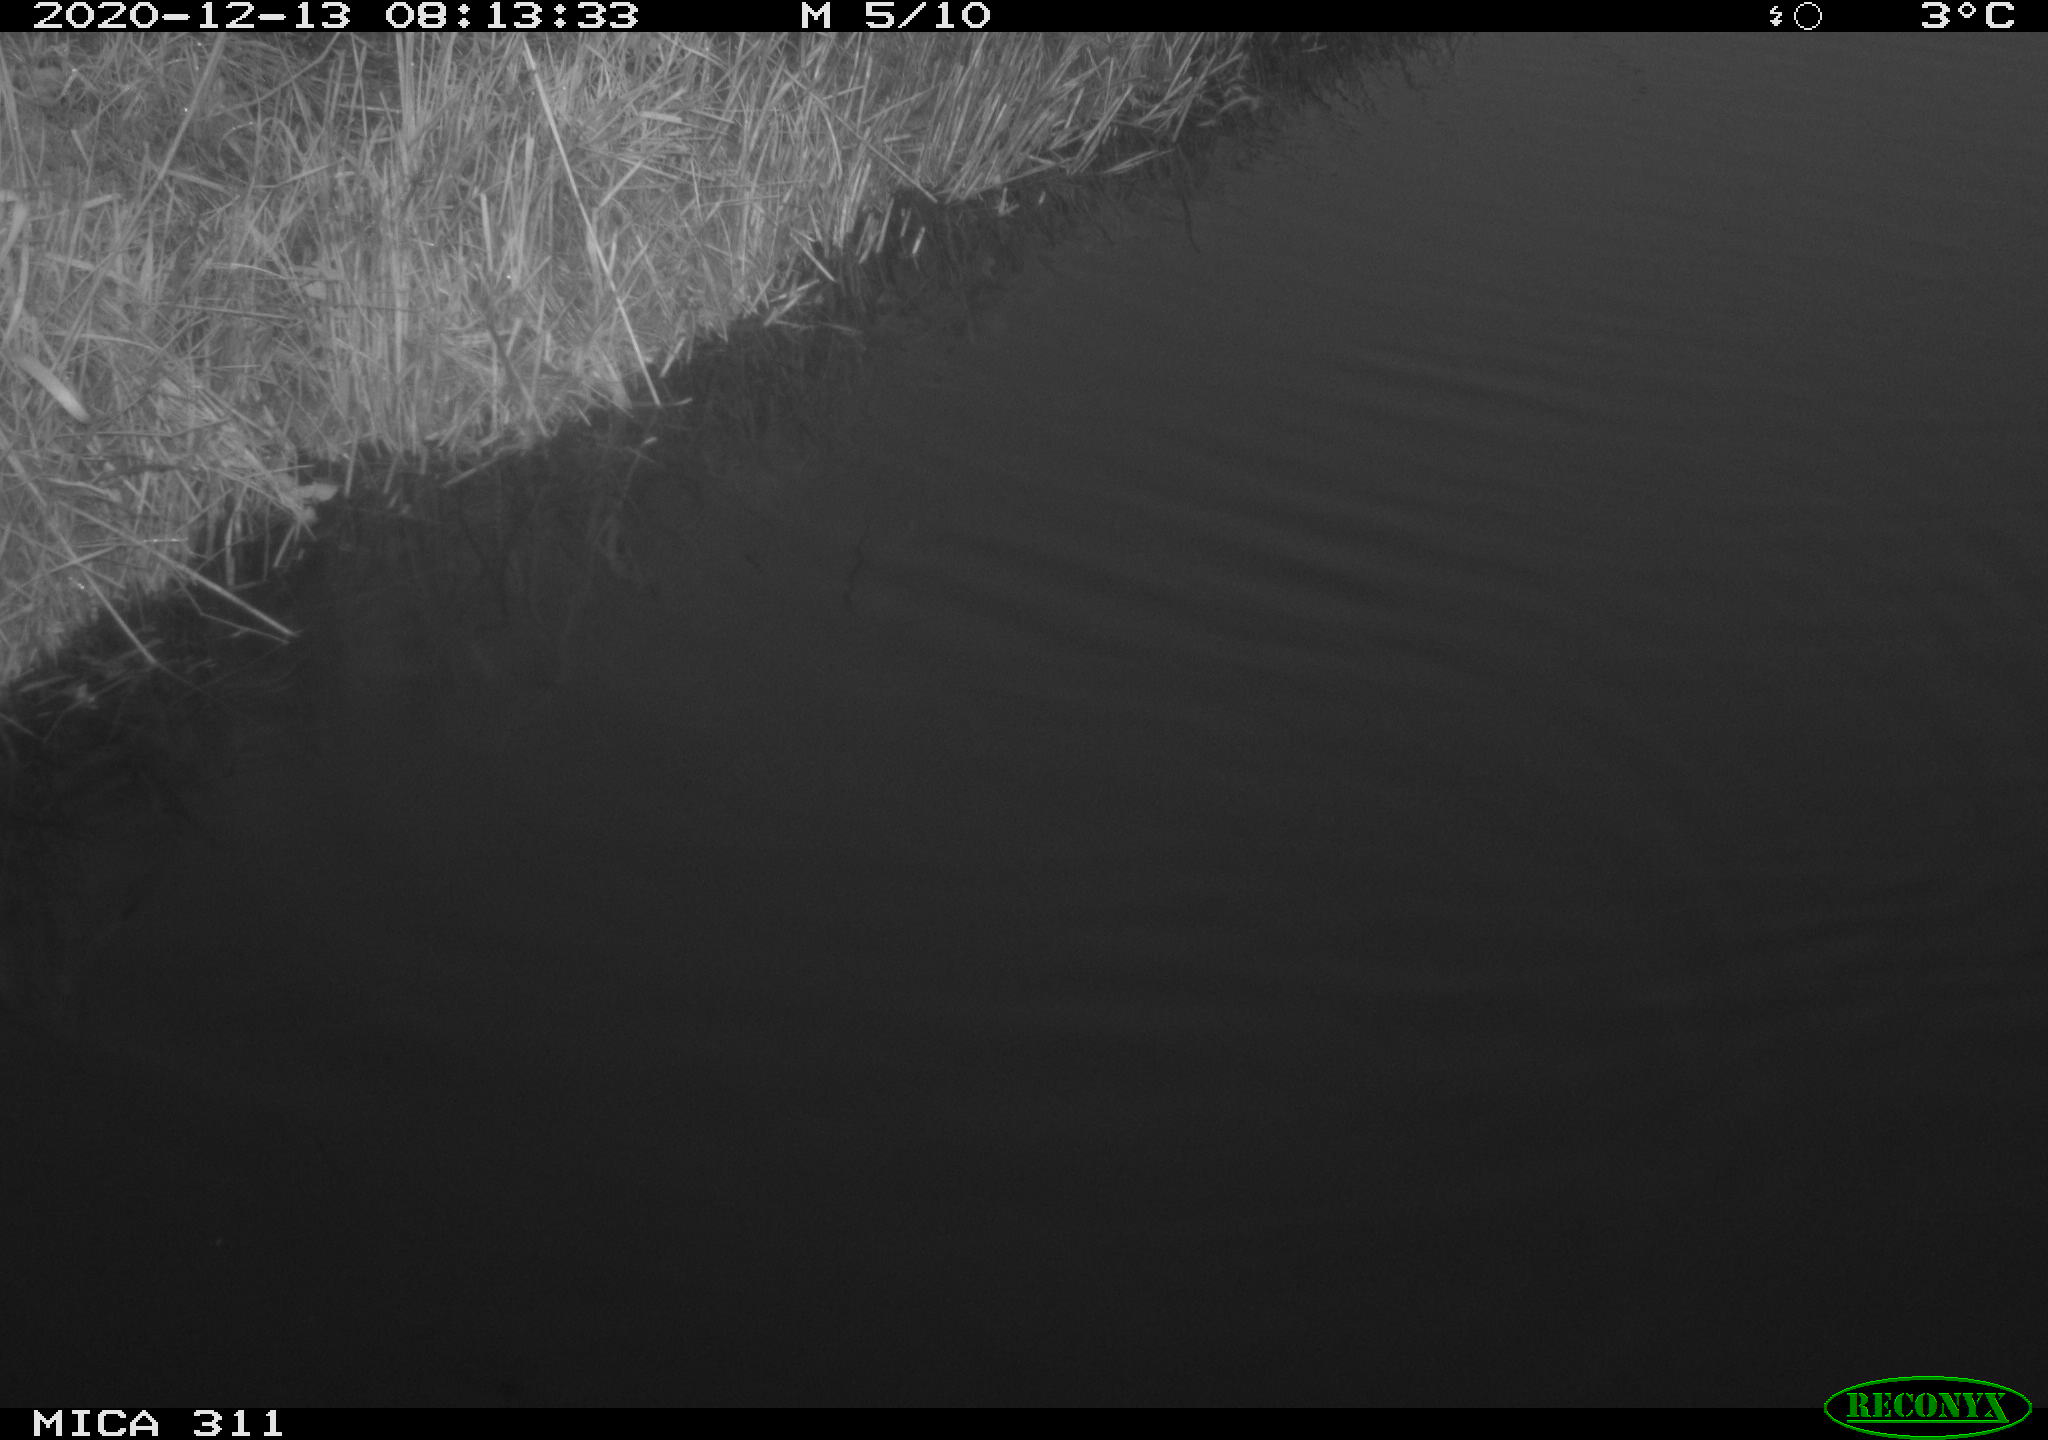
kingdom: Animalia
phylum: Chordata
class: Aves
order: Gruiformes
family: Rallidae
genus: Gallinula
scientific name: Gallinula chloropus
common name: Common moorhen
